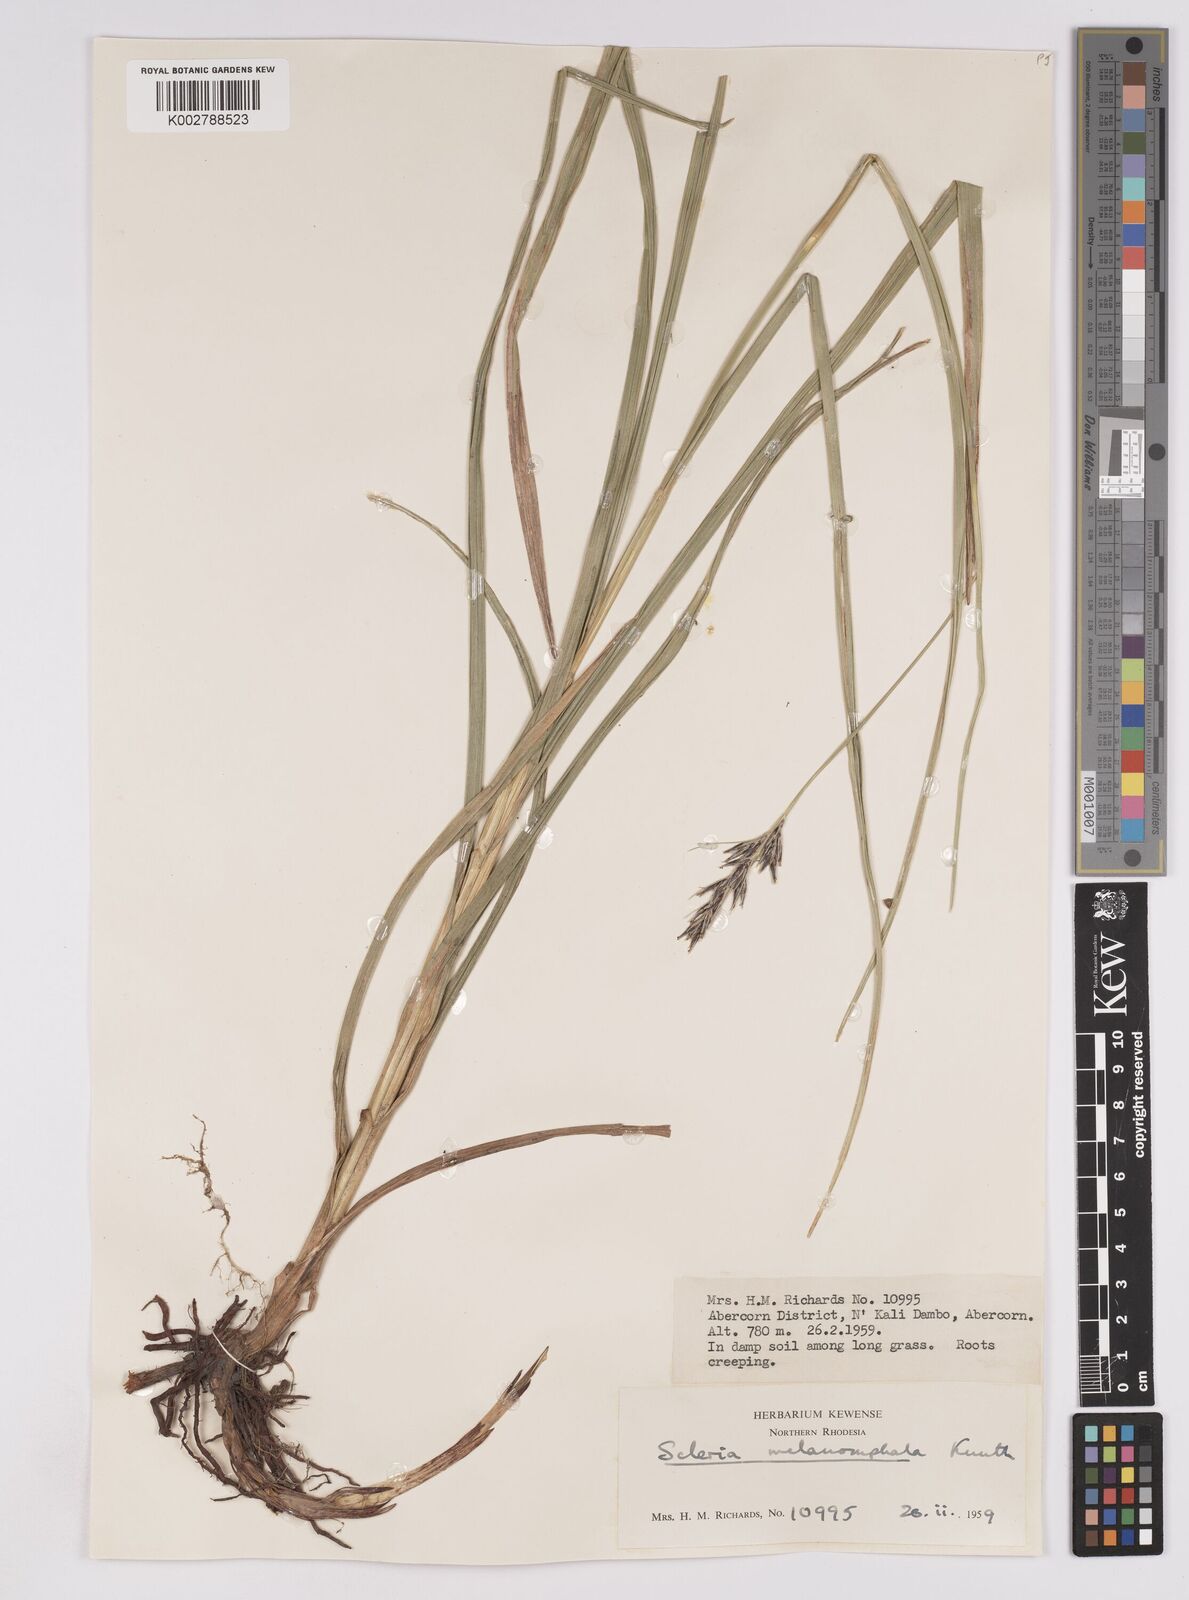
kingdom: Plantae
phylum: Tracheophyta
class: Liliopsida
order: Poales
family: Cyperaceae
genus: Scleria
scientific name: Scleria melanomphala
